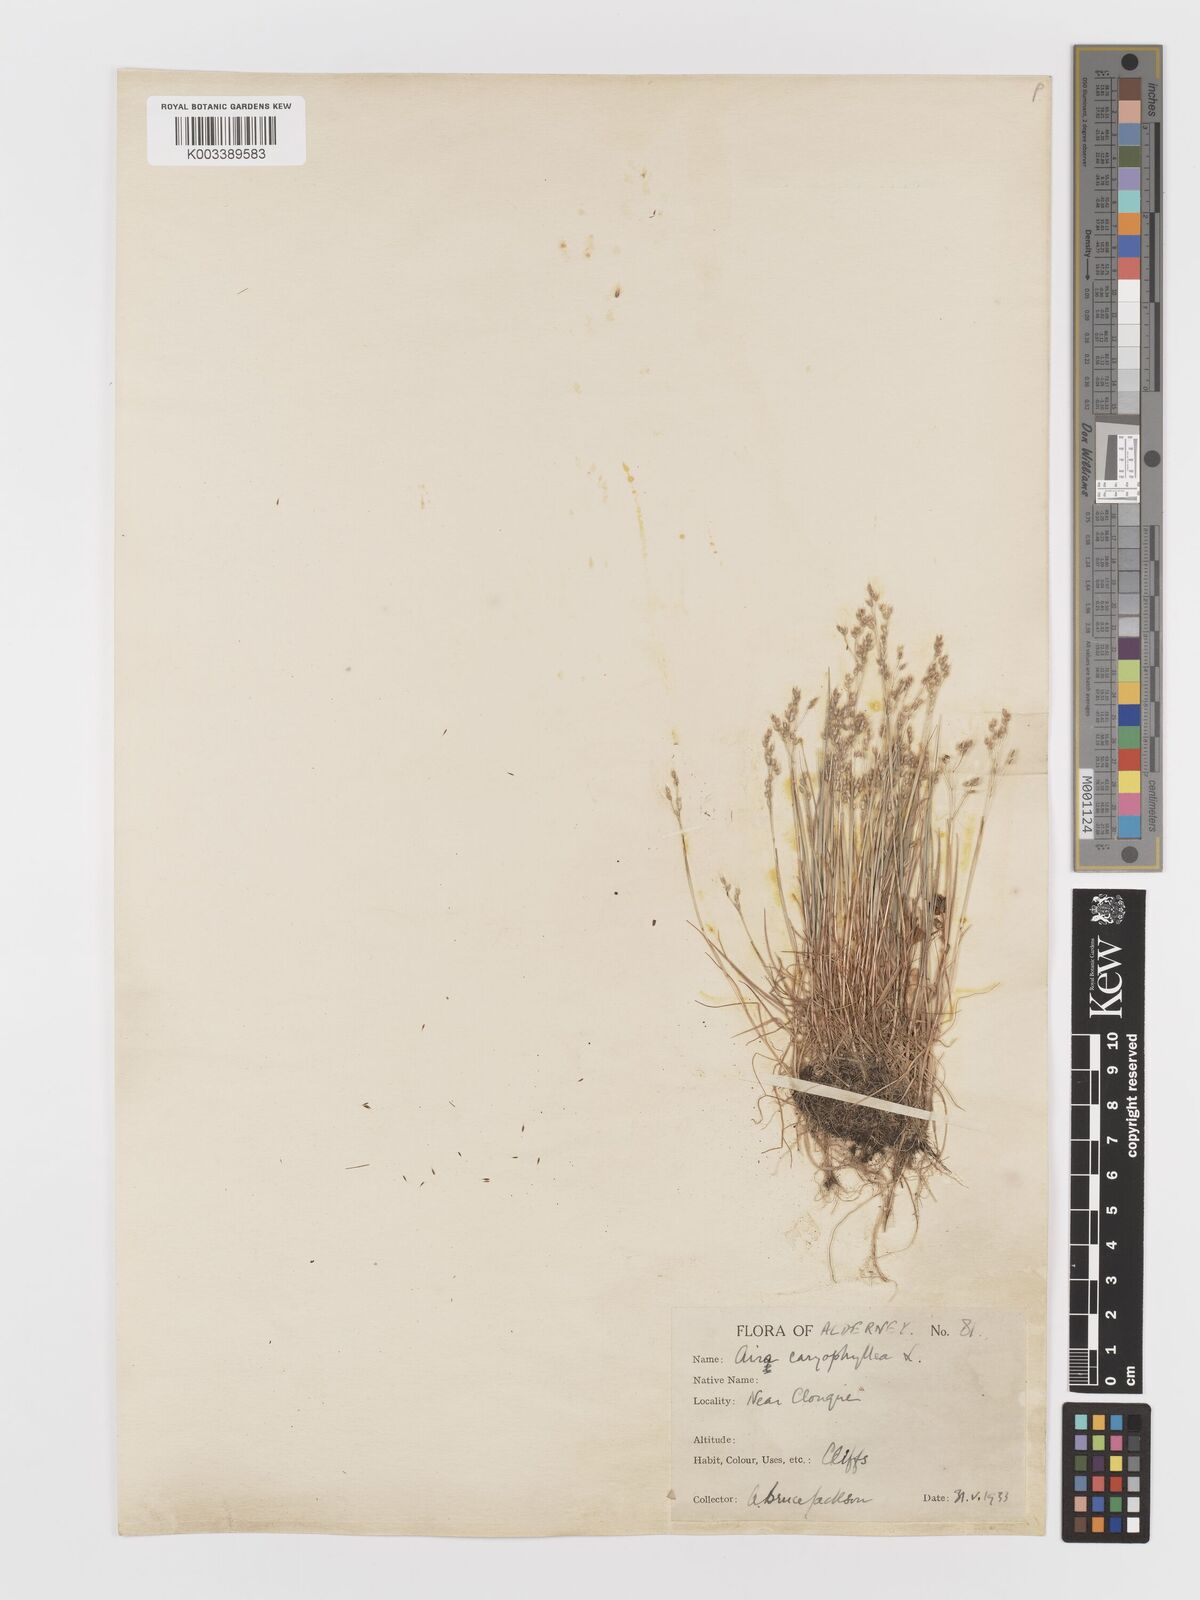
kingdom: Plantae
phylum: Tracheophyta
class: Liliopsida
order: Poales
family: Poaceae
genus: Aira
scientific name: Aira caryophyllea
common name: Silver hairgrass
